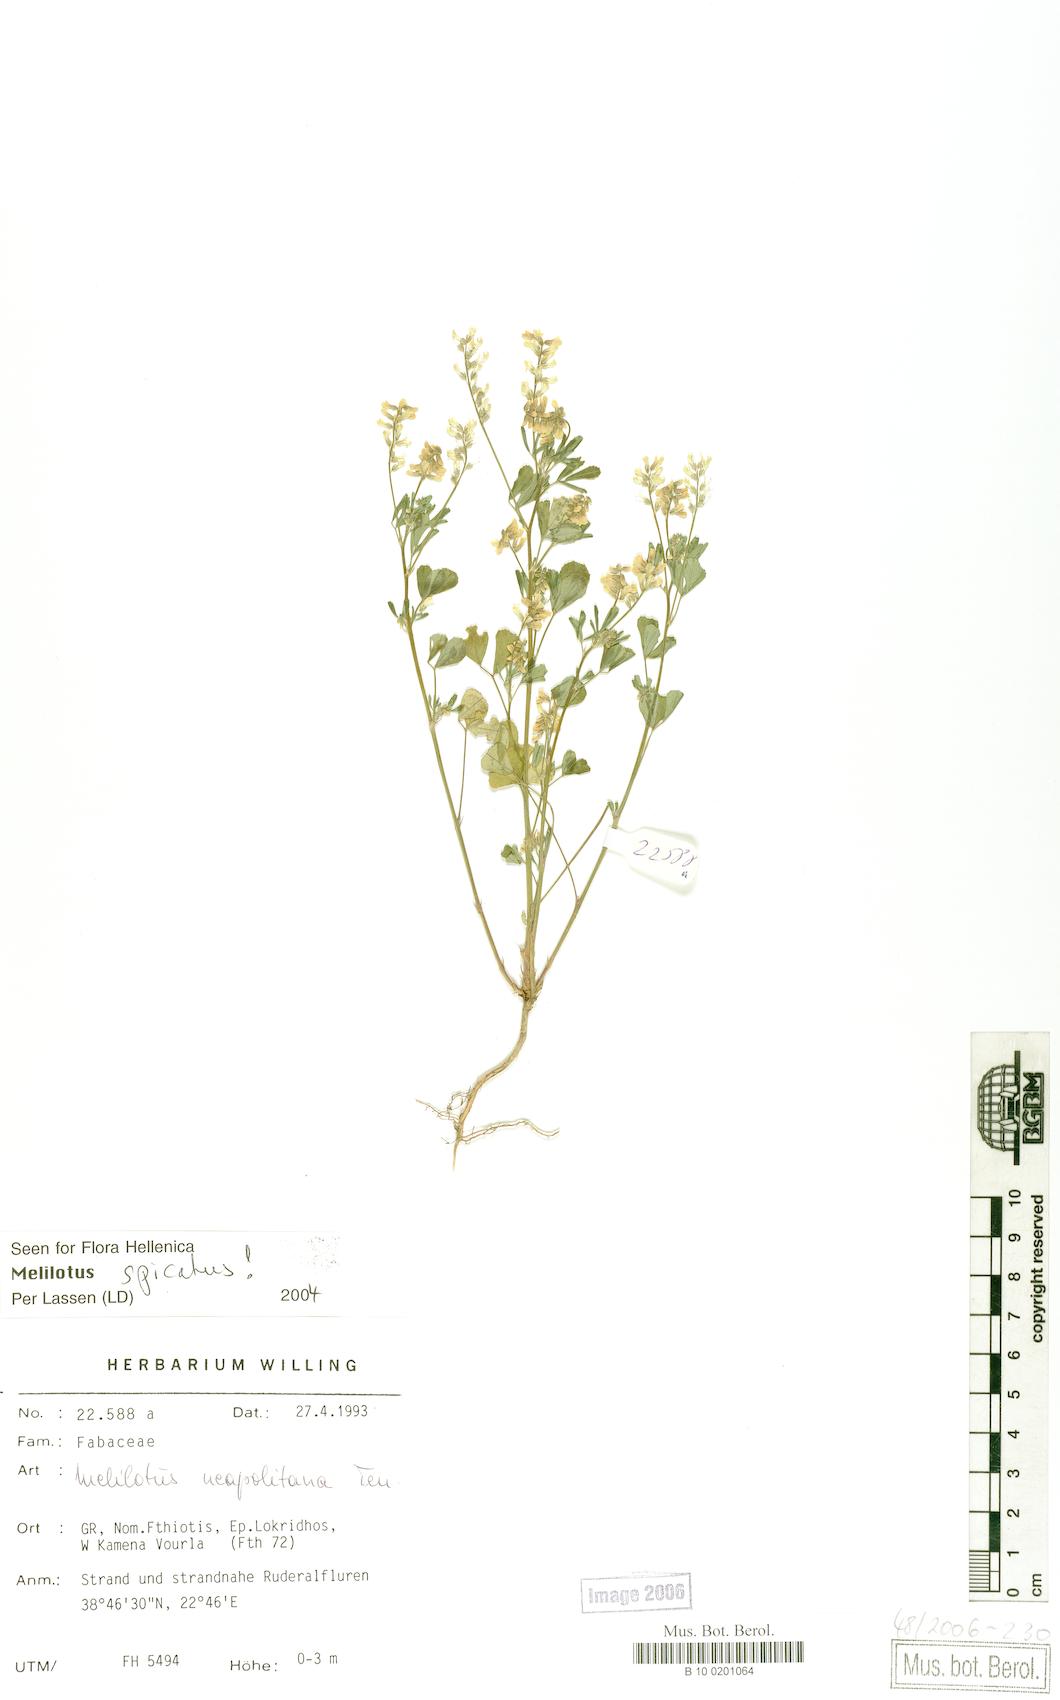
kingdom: Plantae
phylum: Tracheophyta
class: Magnoliopsida
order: Fabales
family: Fabaceae
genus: Melilotus
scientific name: Melilotus neapolitanus
